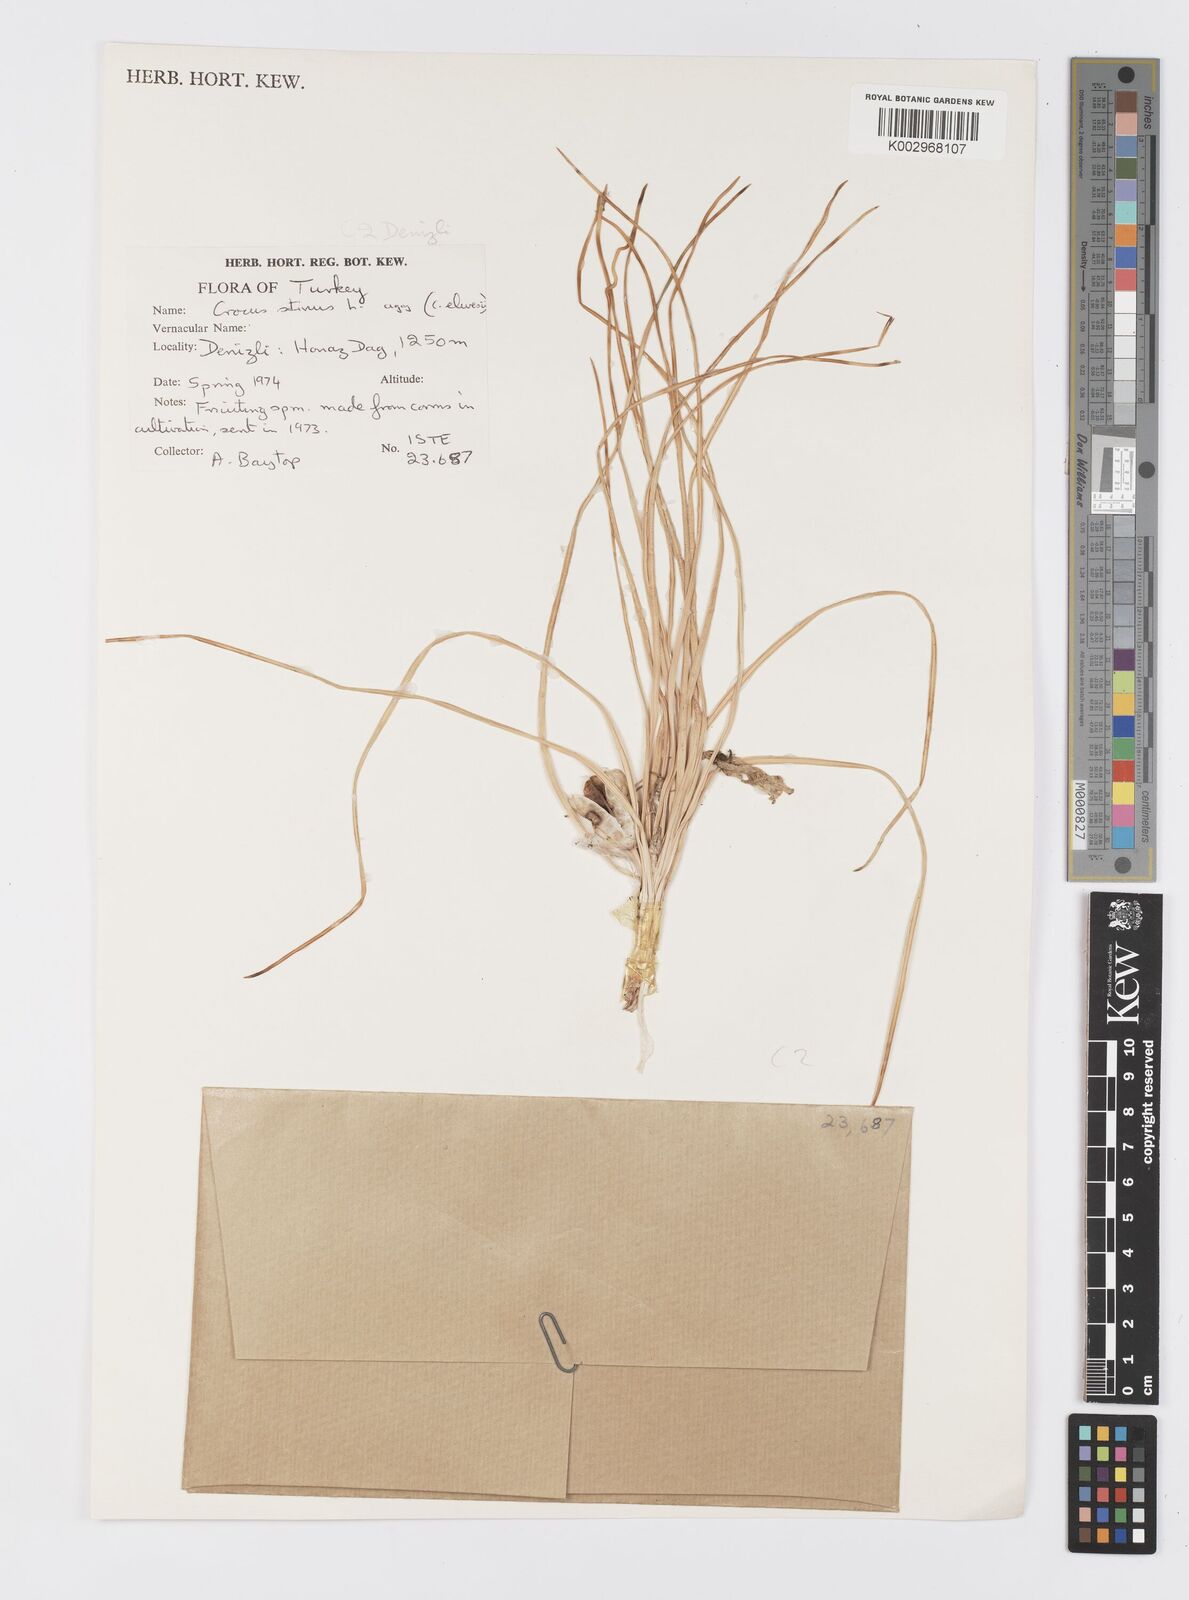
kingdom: Plantae
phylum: Tracheophyta
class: Liliopsida
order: Asparagales
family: Iridaceae
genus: Crocus
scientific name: Crocus
